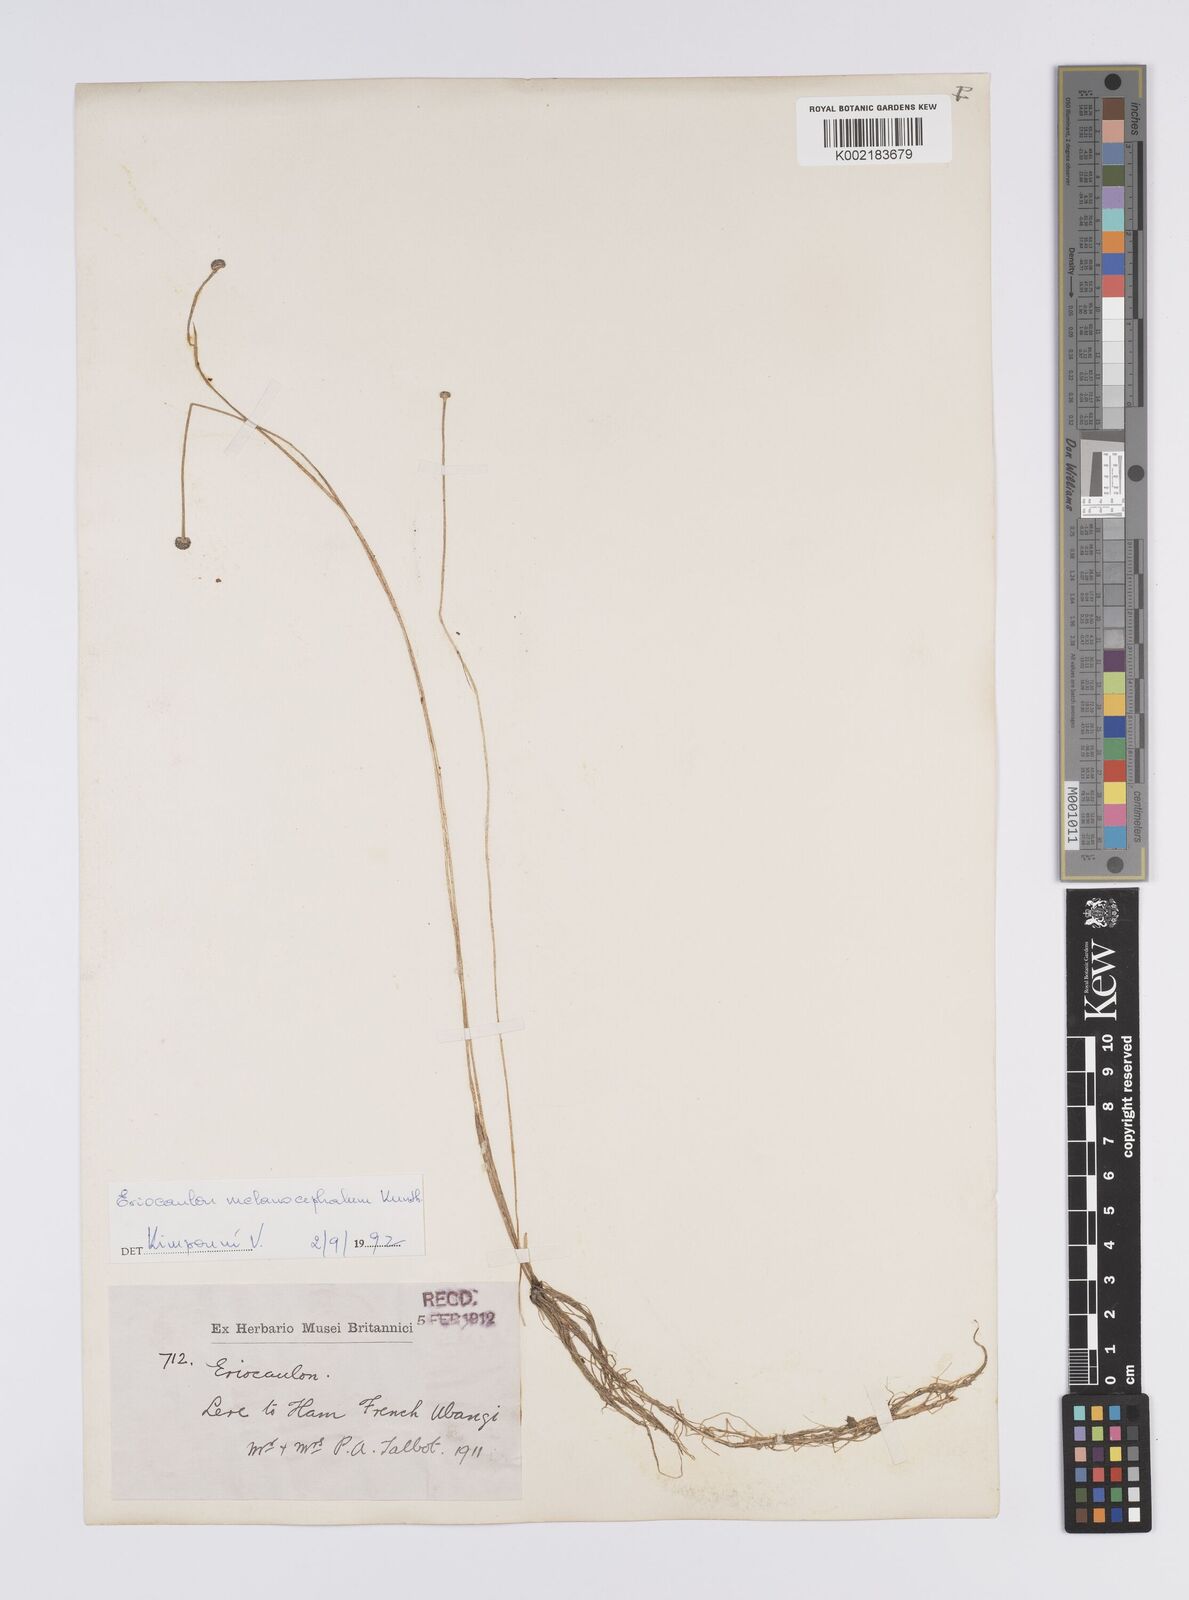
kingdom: Plantae
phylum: Tracheophyta
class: Liliopsida
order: Poales
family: Eriocaulaceae
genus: Eriocaulon
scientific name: Eriocaulon setaceum
